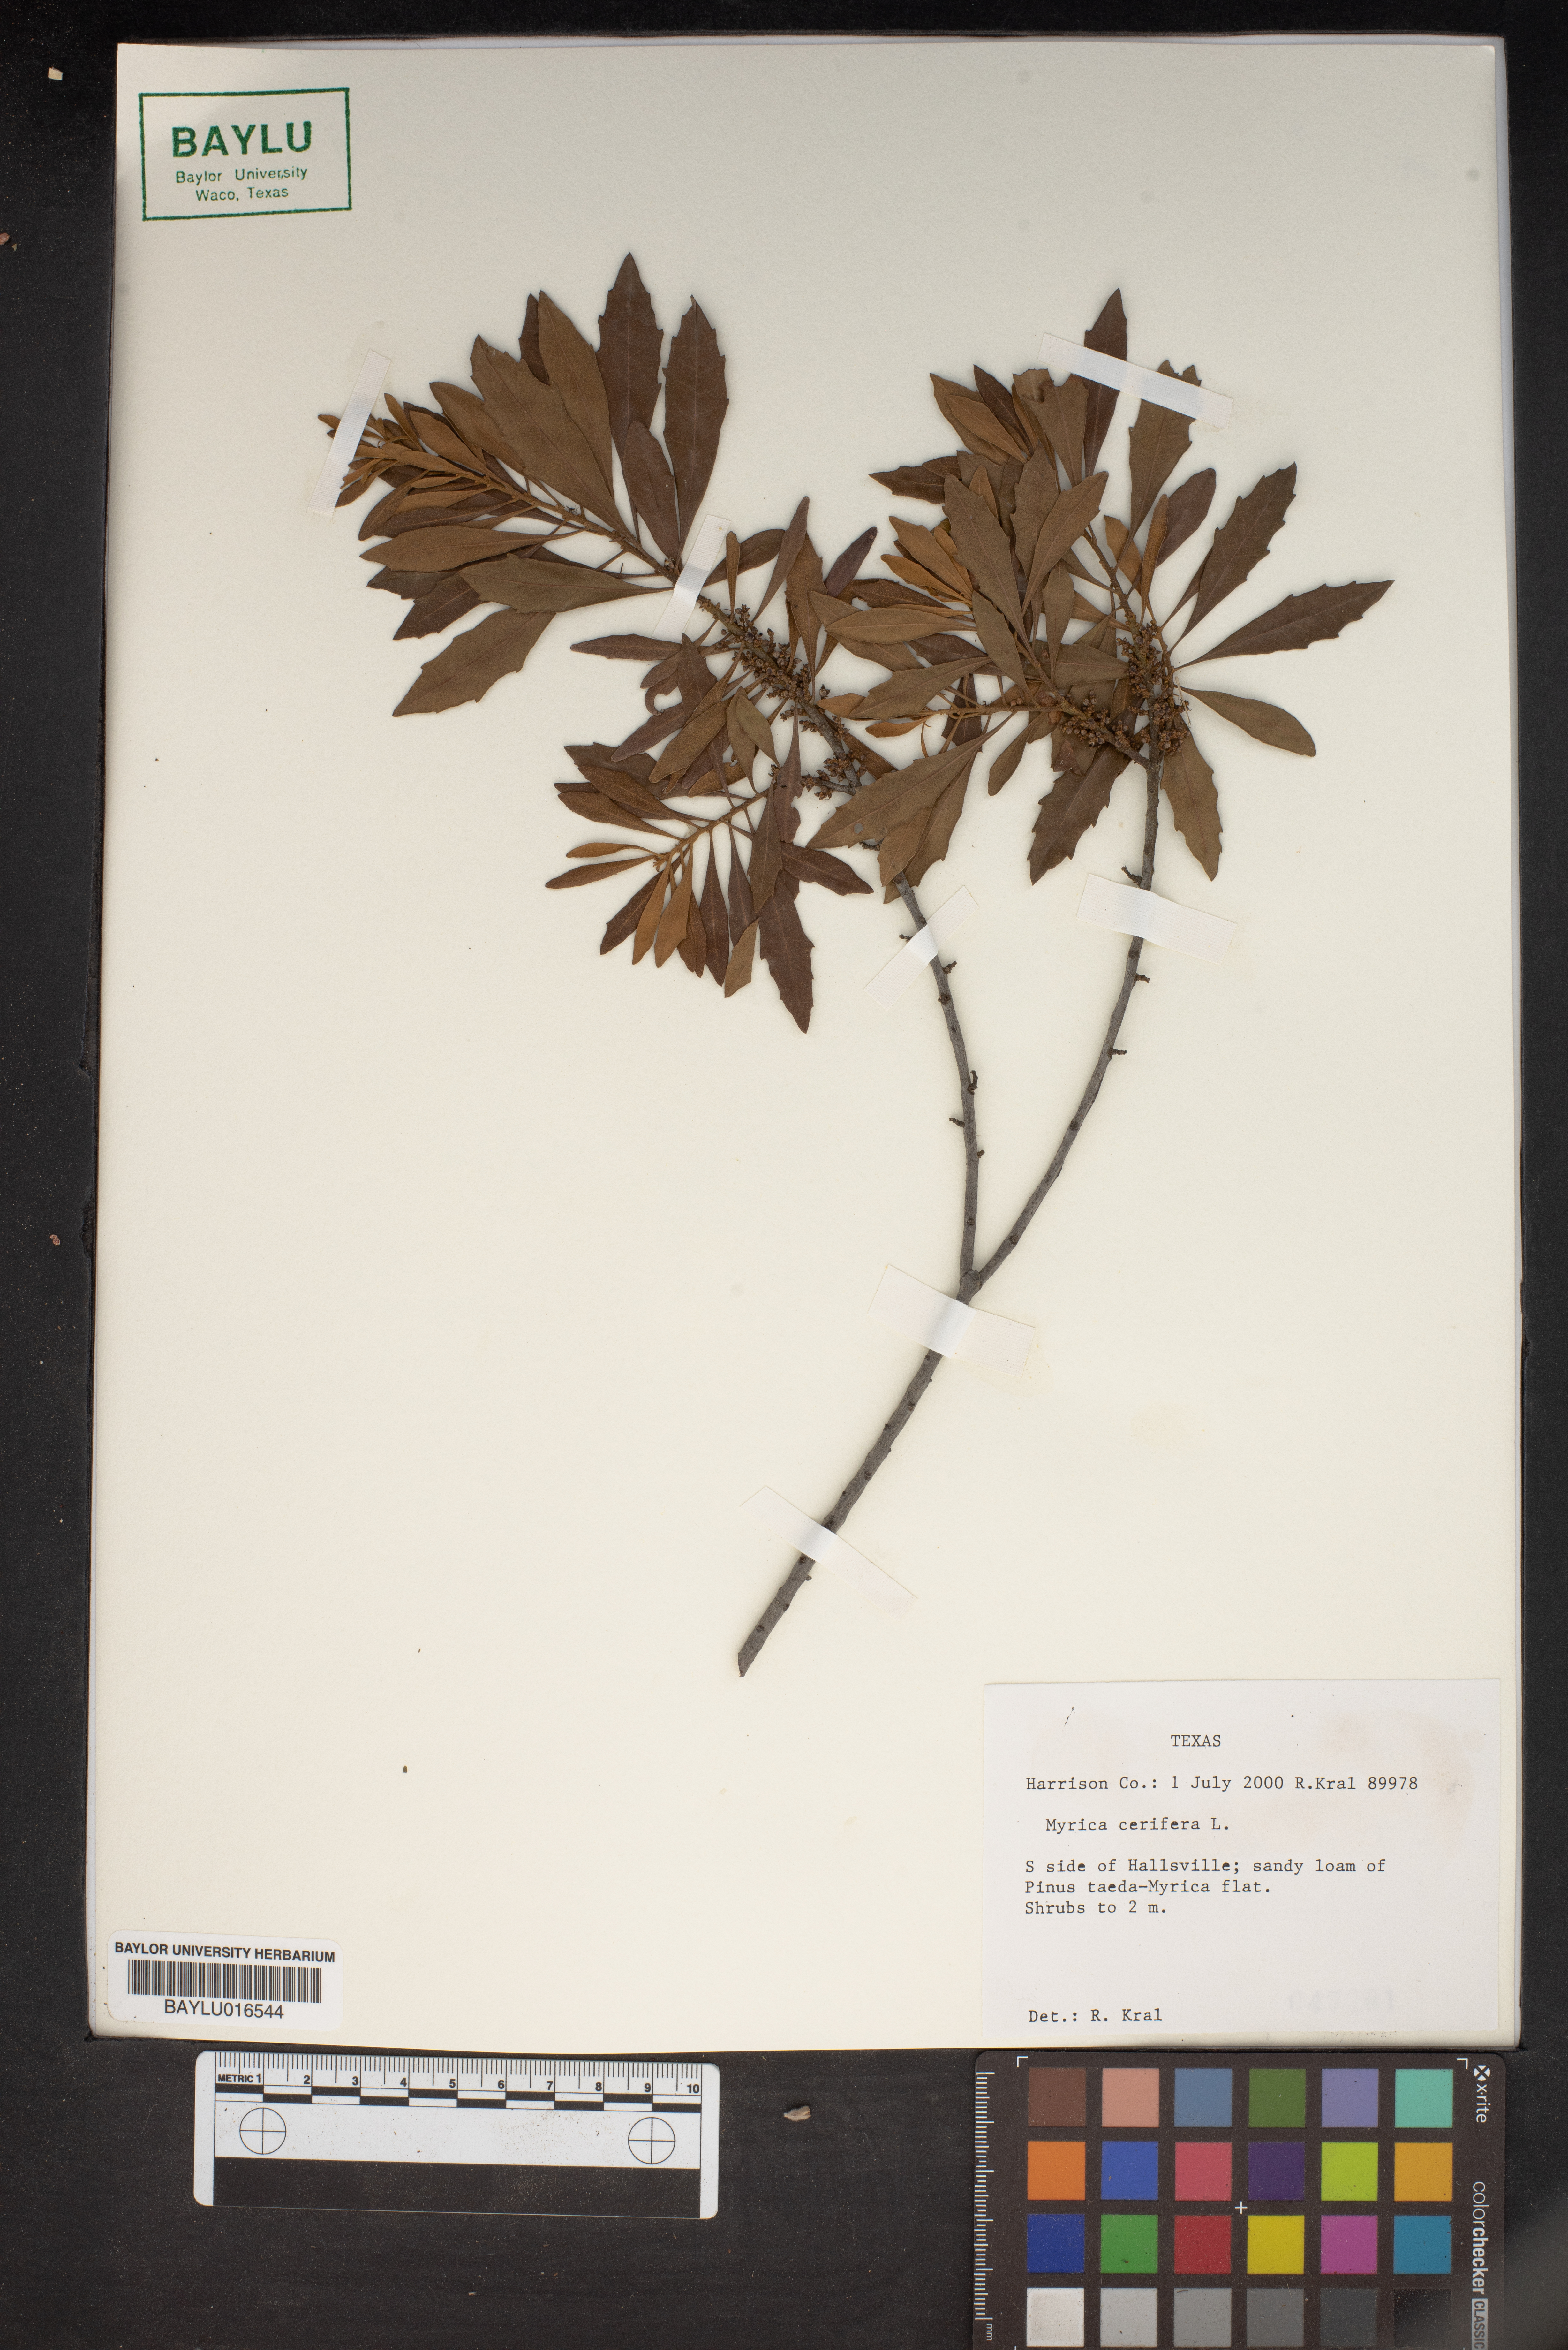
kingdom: Plantae
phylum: Tracheophyta
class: Magnoliopsida
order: Fagales
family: Myricaceae
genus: Morella
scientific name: Morella cerifera
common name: Wax myrtle
